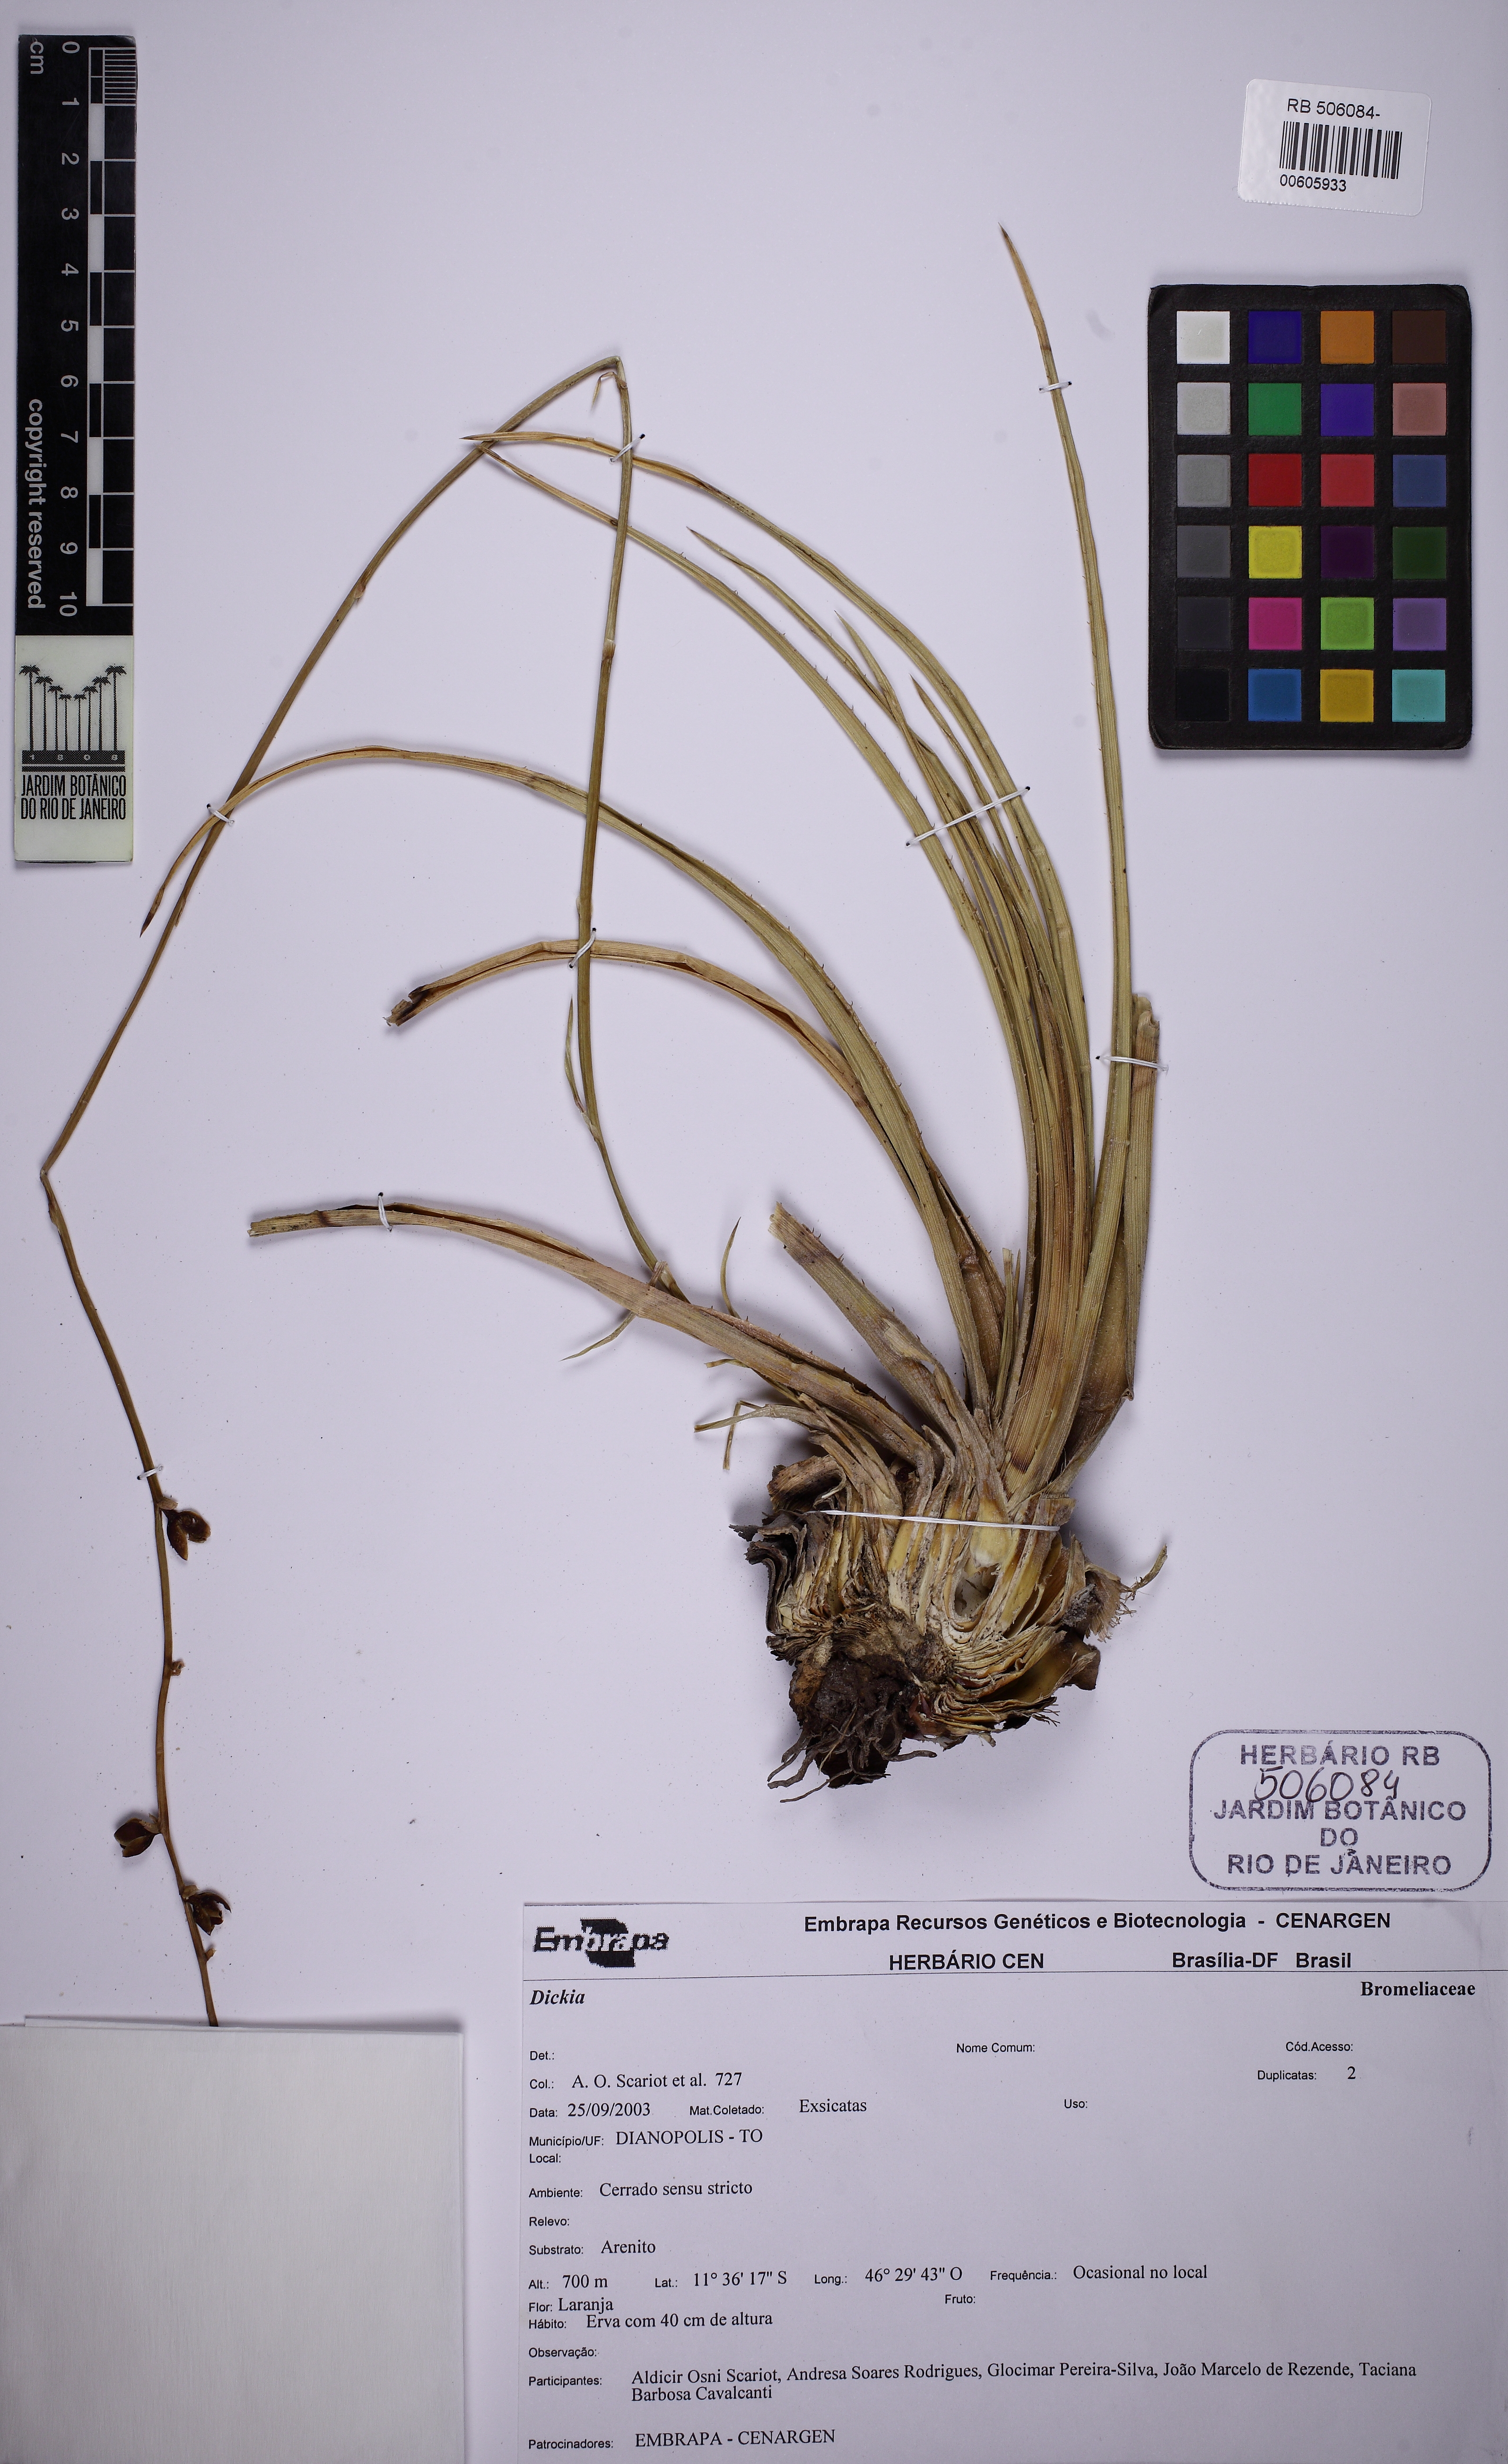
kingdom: Plantae
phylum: Tracheophyta
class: Liliopsida
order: Poales
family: Bromeliaceae
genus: Dyckia
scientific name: Dyckia burchellii
